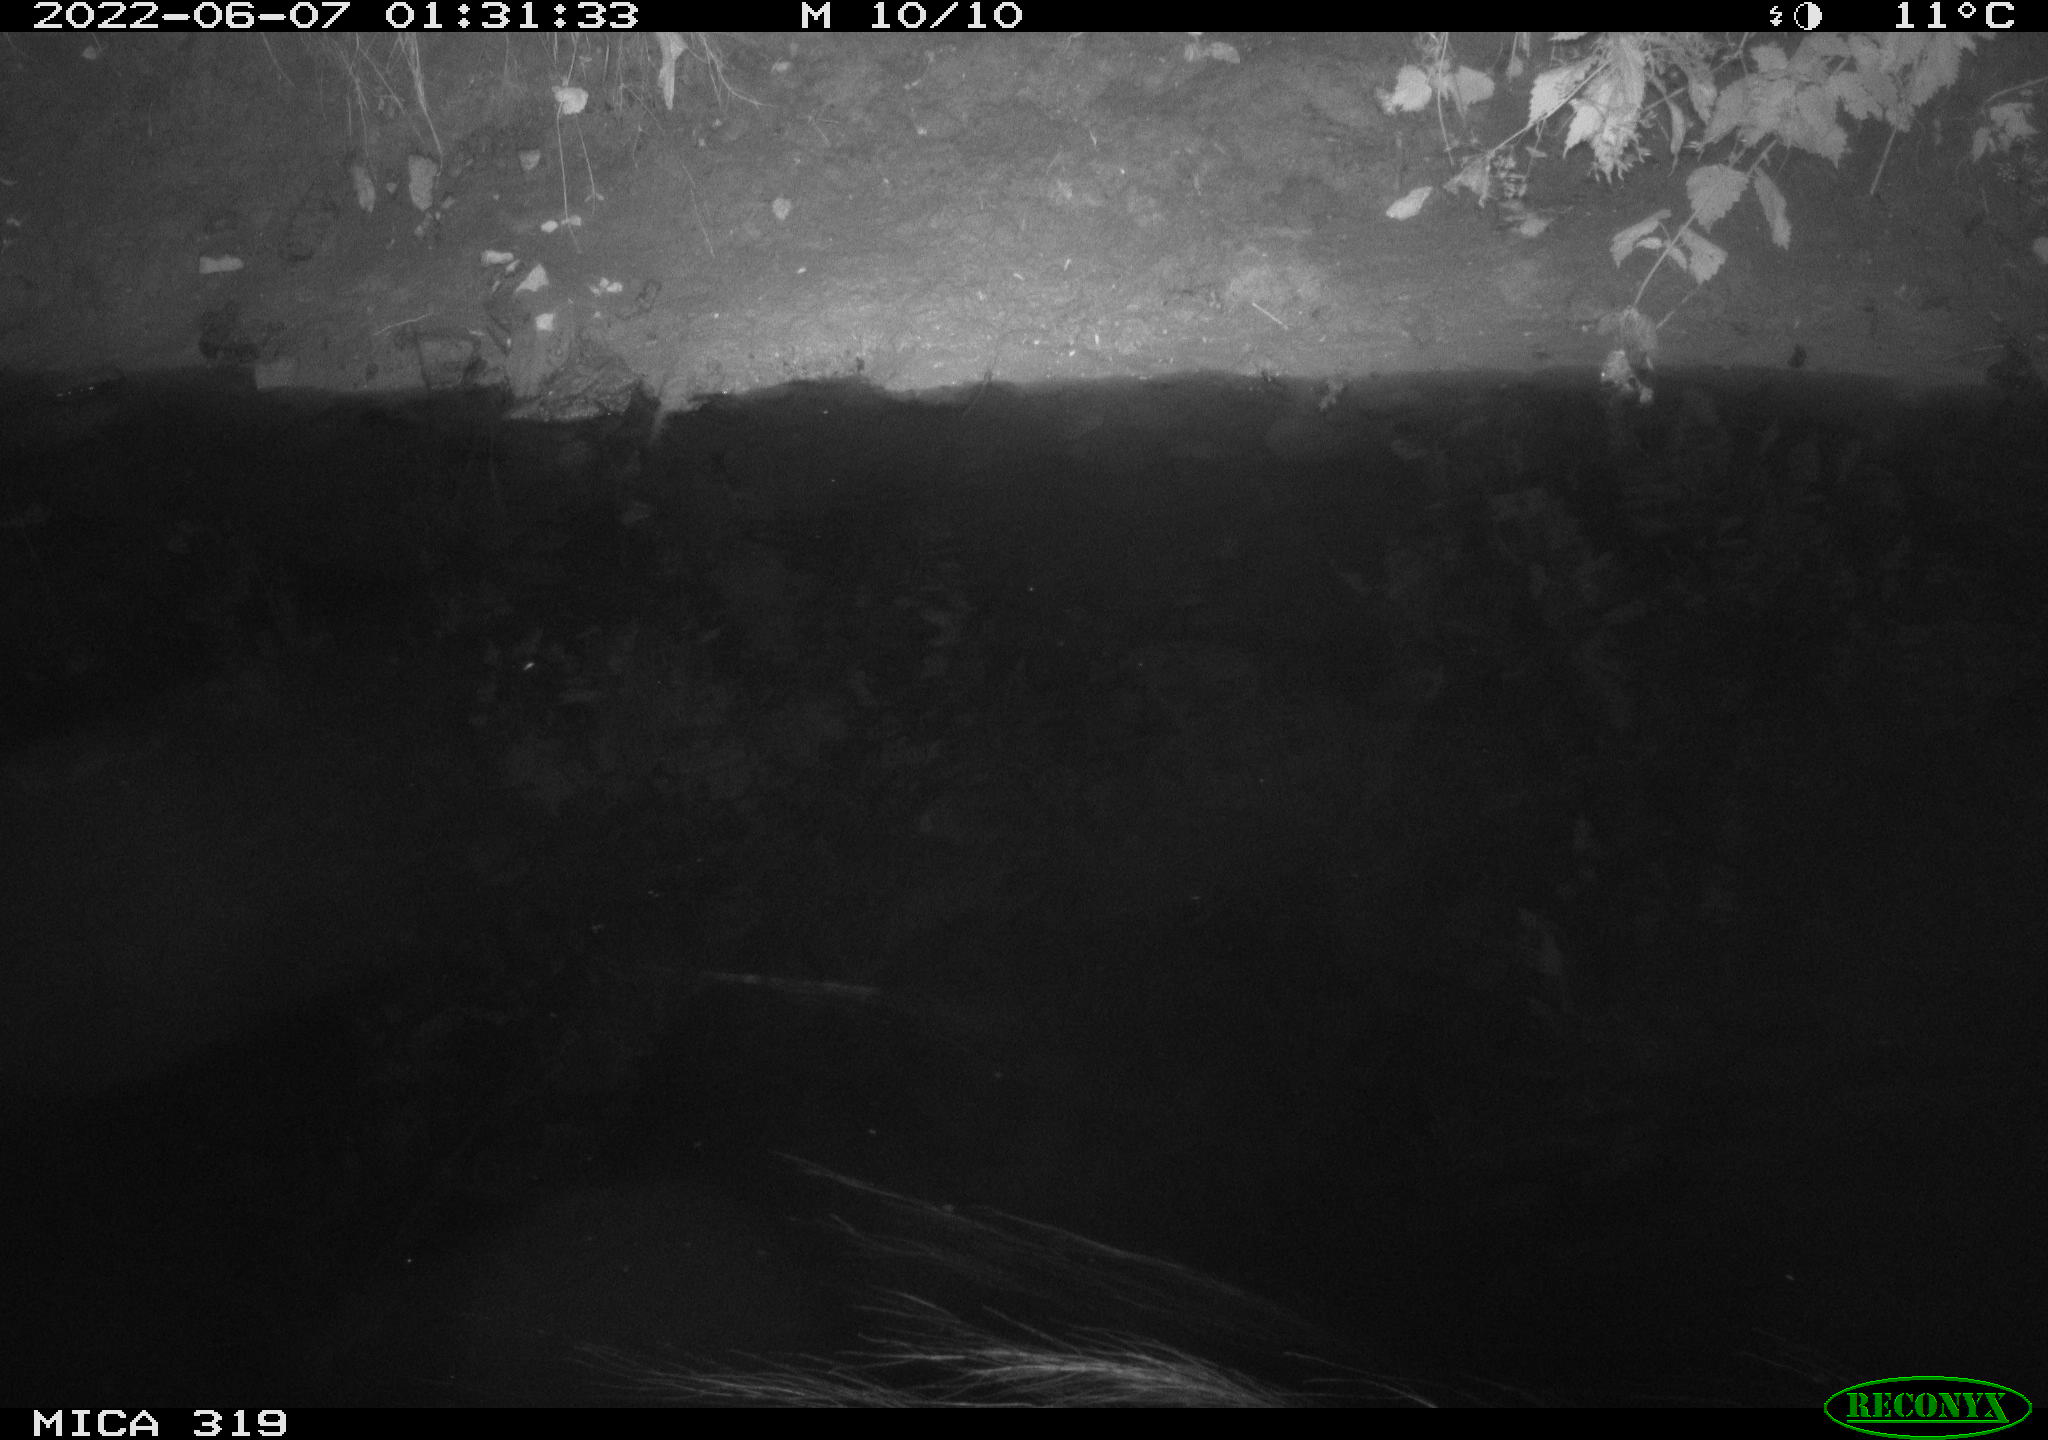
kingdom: Animalia
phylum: Chordata
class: Aves
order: Anseriformes
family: Anatidae
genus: Anas
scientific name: Anas
